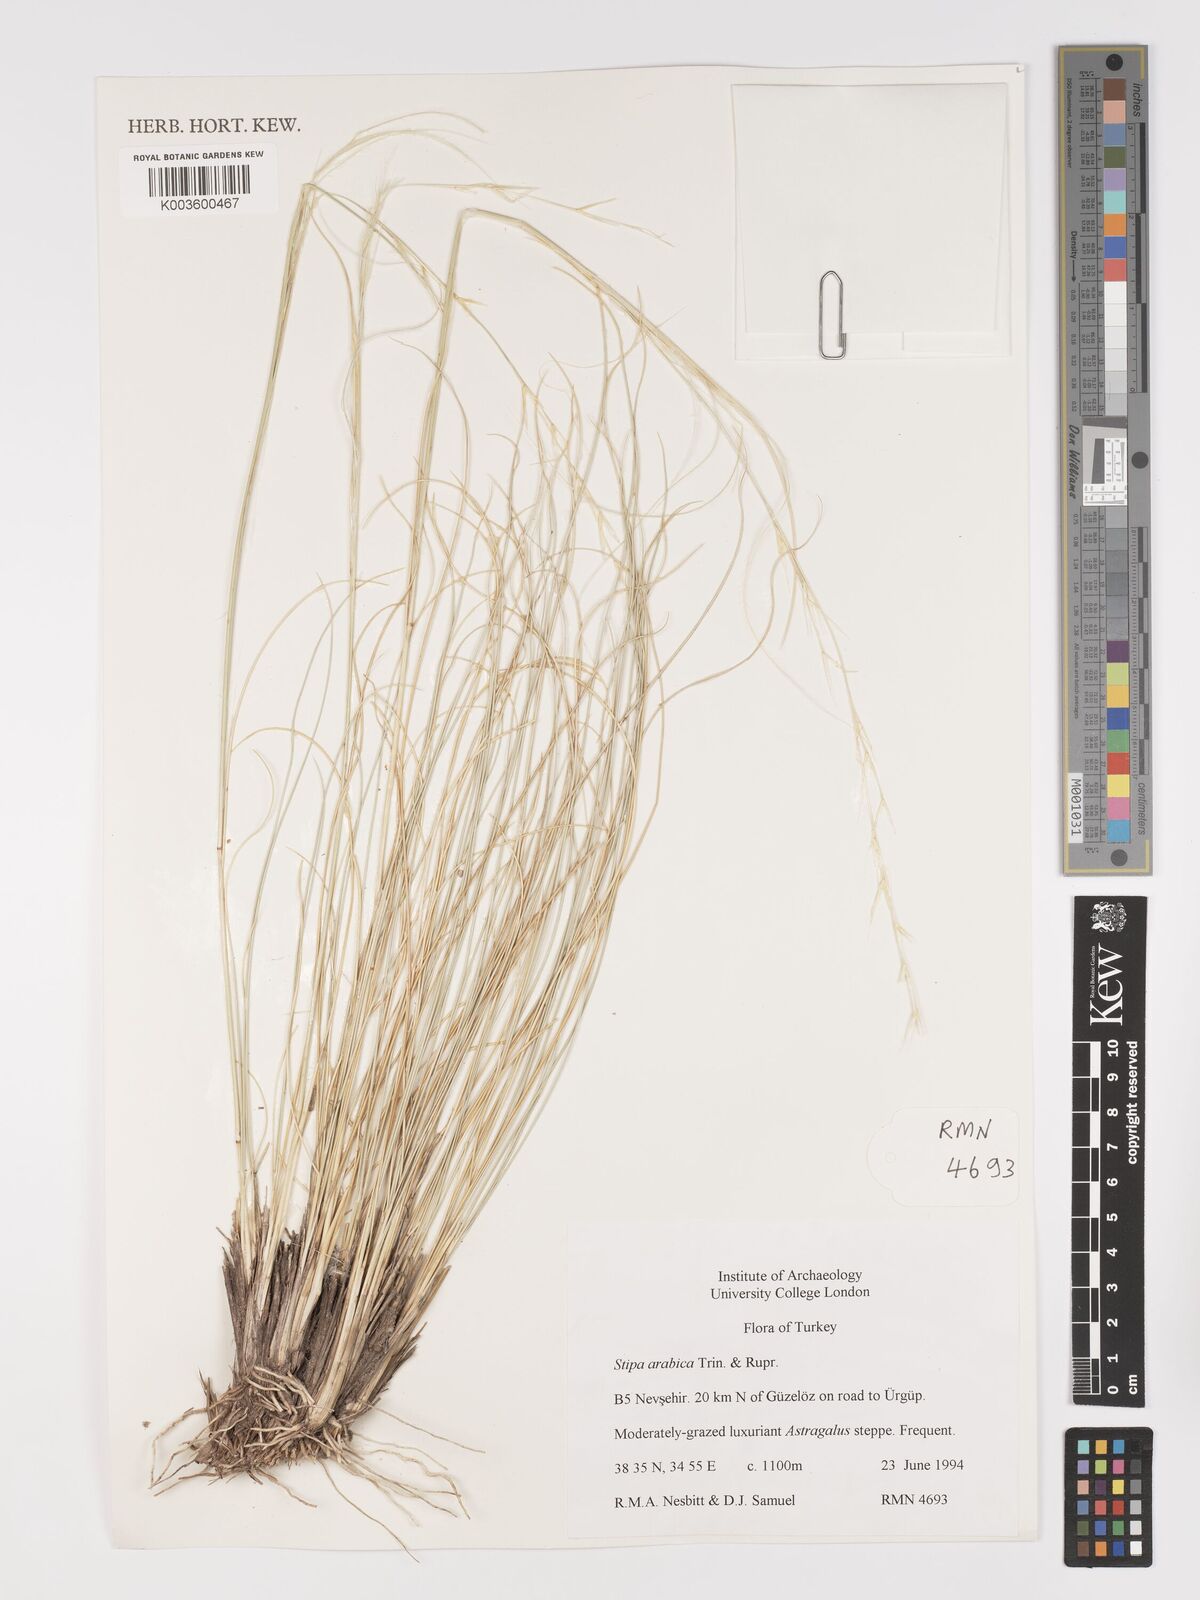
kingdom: Plantae
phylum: Tracheophyta
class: Liliopsida
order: Poales
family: Poaceae
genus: Stipa
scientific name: Stipa arabica
